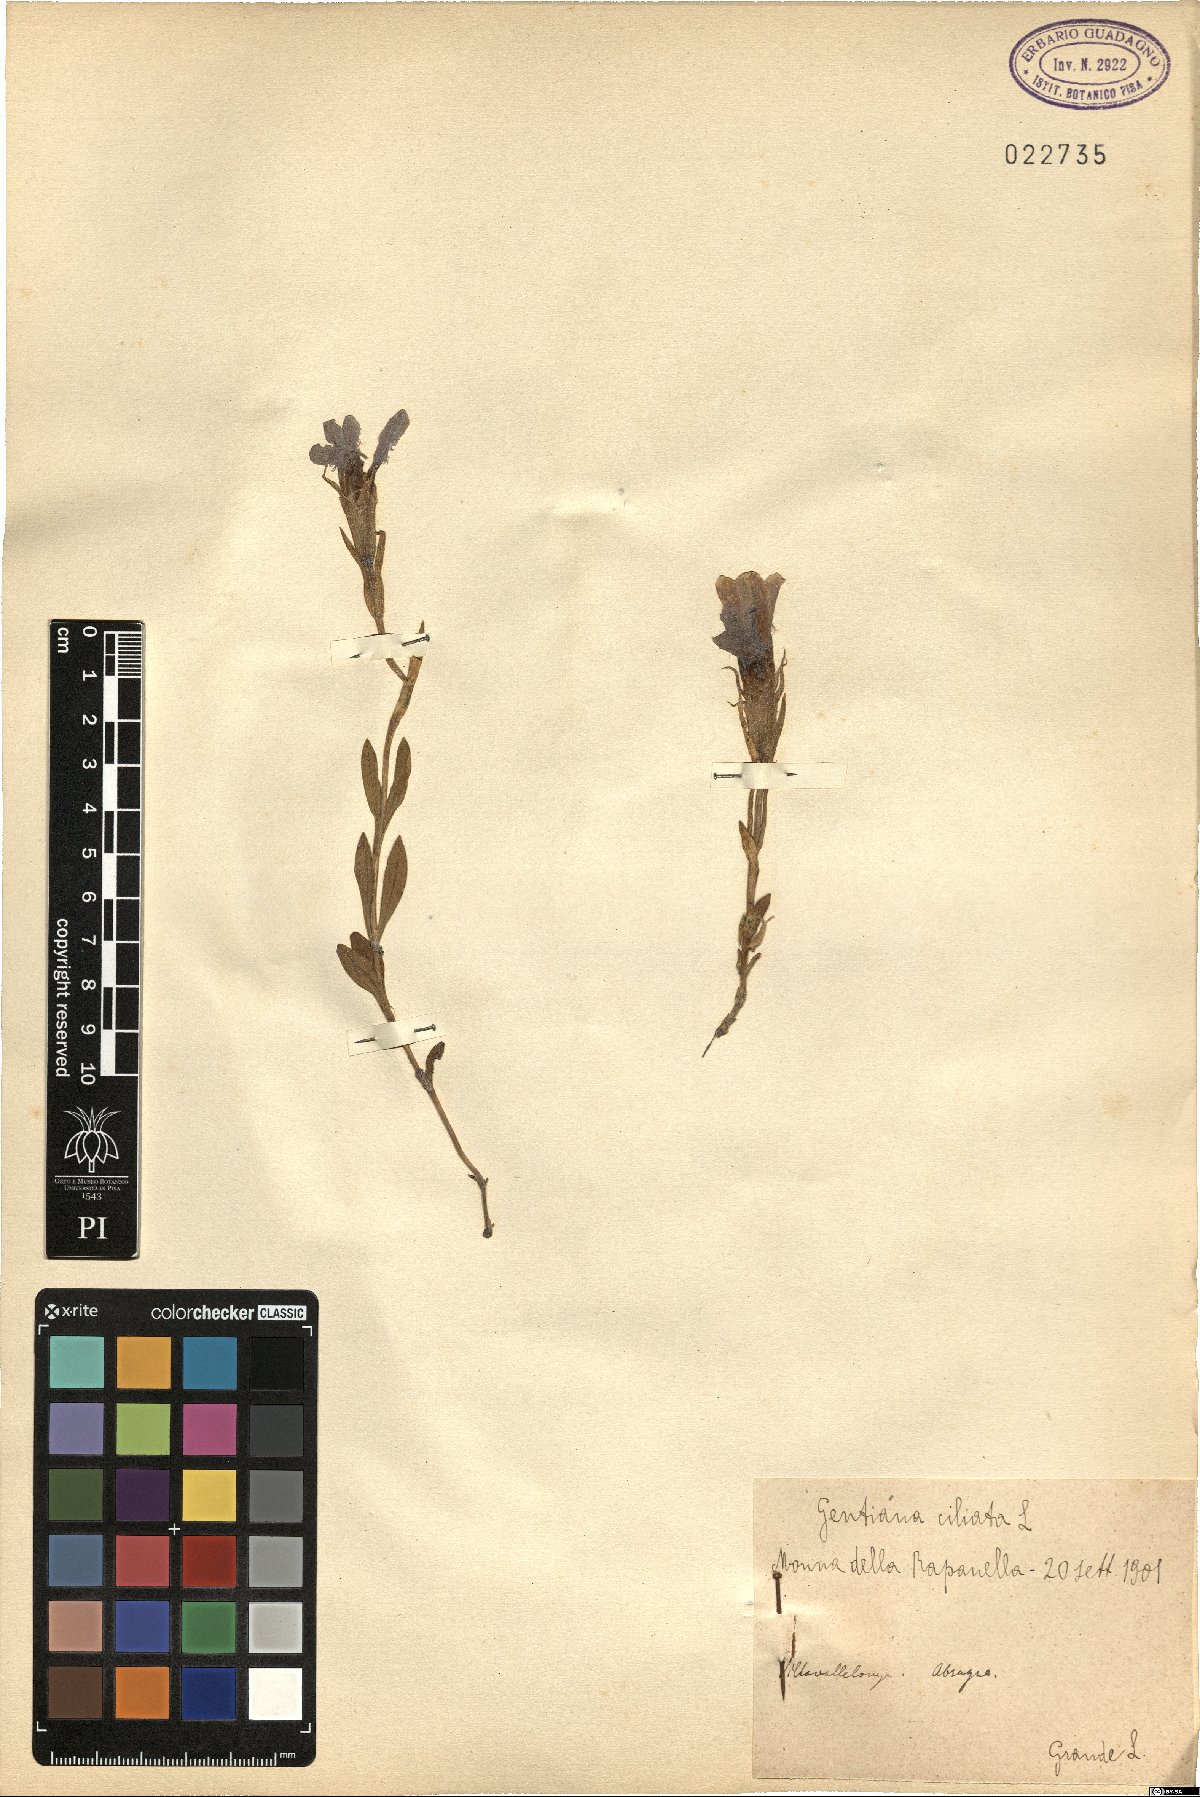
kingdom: Plantae
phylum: Tracheophyta
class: Magnoliopsida
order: Gentianales
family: Gentianaceae
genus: Gentianopsis
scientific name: Gentianopsis ciliata
